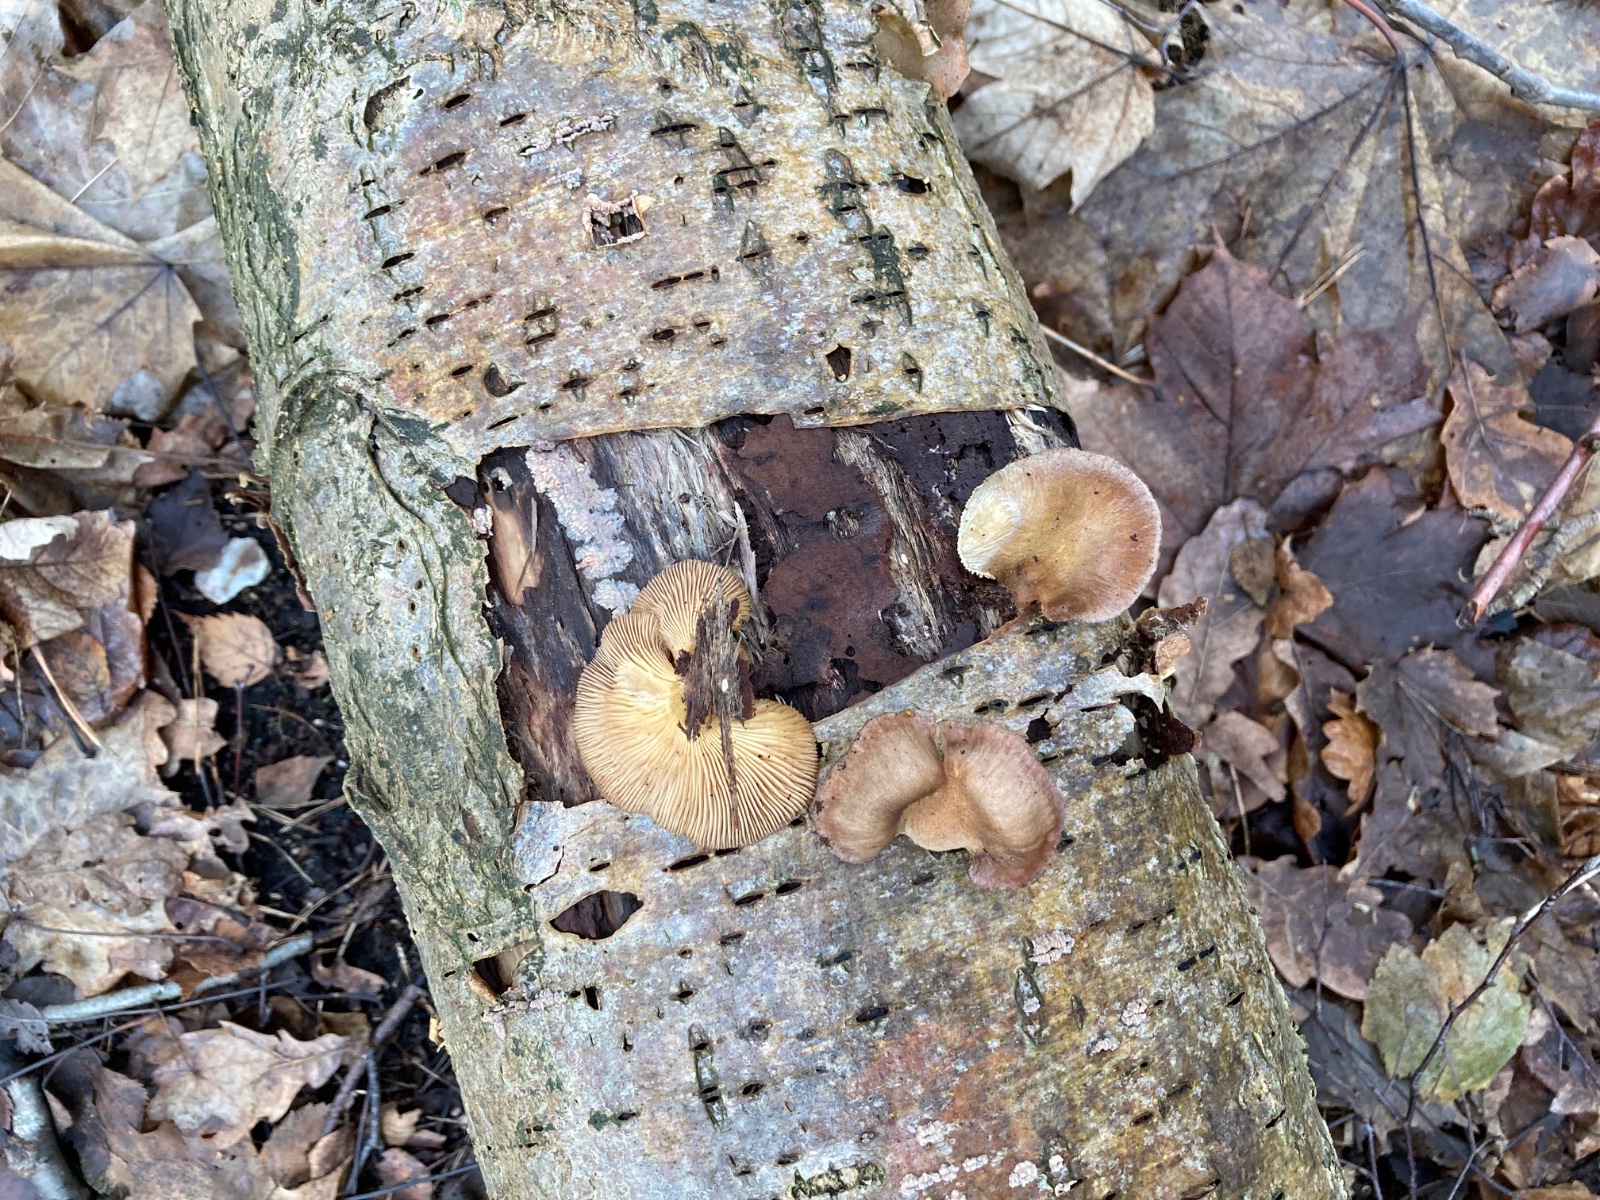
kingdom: Fungi
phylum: Basidiomycota
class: Agaricomycetes
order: Agaricales
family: Sarcomyxaceae
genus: Sarcomyxa
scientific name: Sarcomyxa serotina
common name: gummihat
